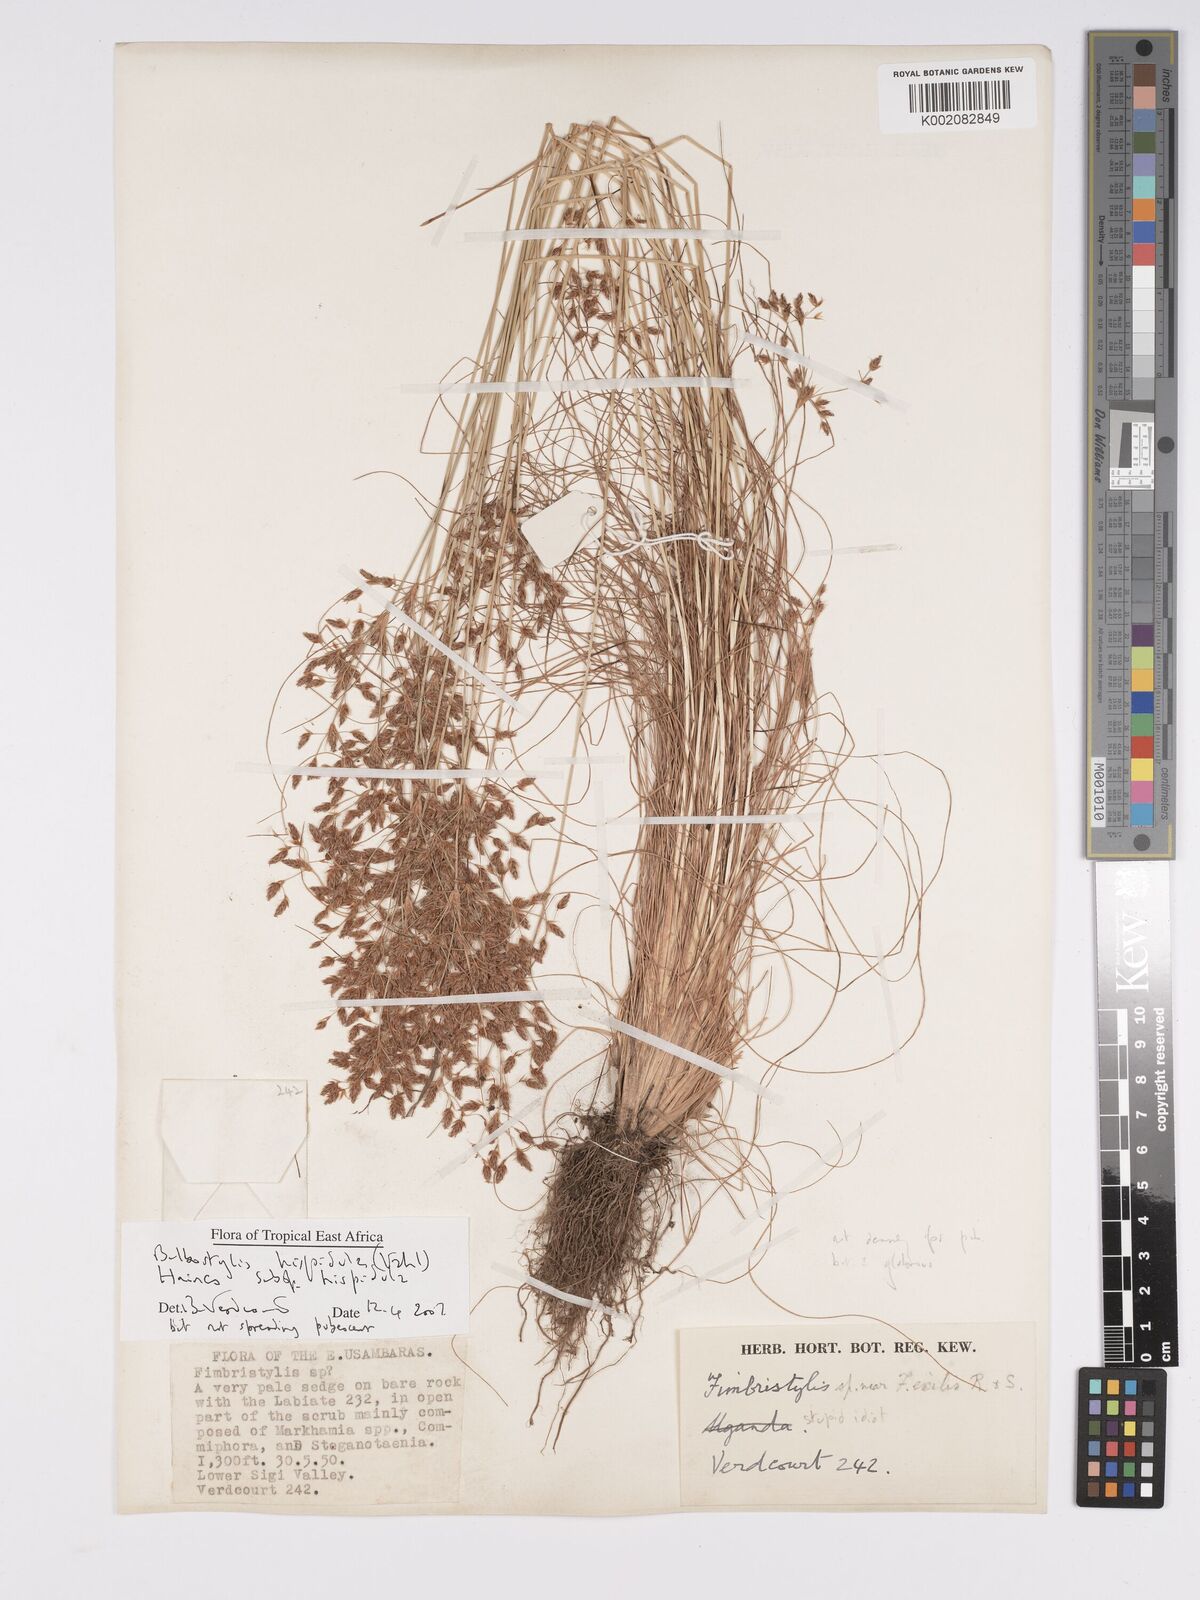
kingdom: Plantae
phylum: Tracheophyta
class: Liliopsida
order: Poales
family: Cyperaceae
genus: Bulbostylis
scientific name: Bulbostylis hispidula
